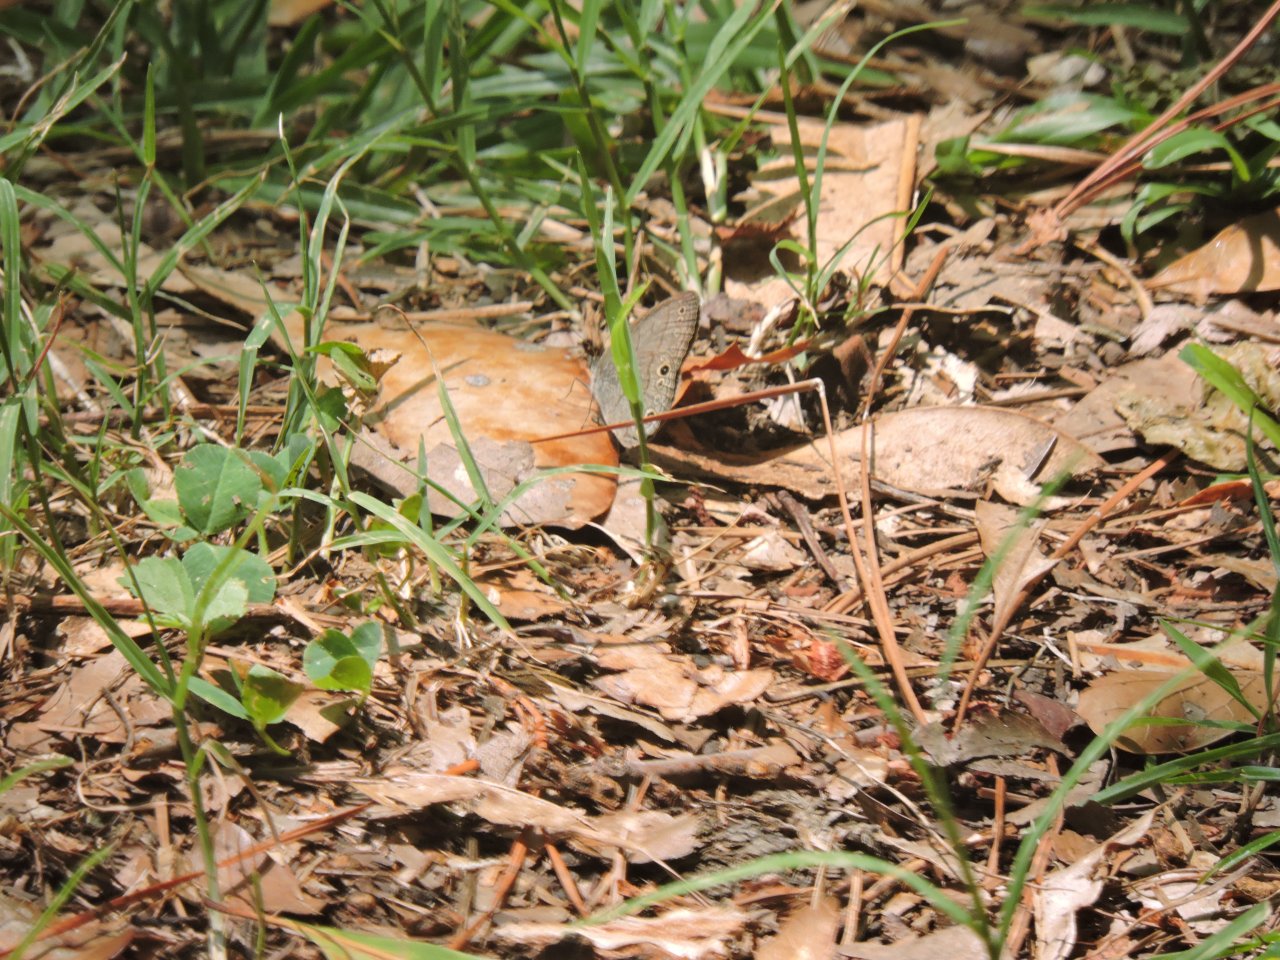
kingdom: Animalia
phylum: Arthropoda
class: Insecta
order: Lepidoptera
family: Nymphalidae
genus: Hermeuptychia
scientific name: Hermeuptychia hermes
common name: Carolina Satyr
